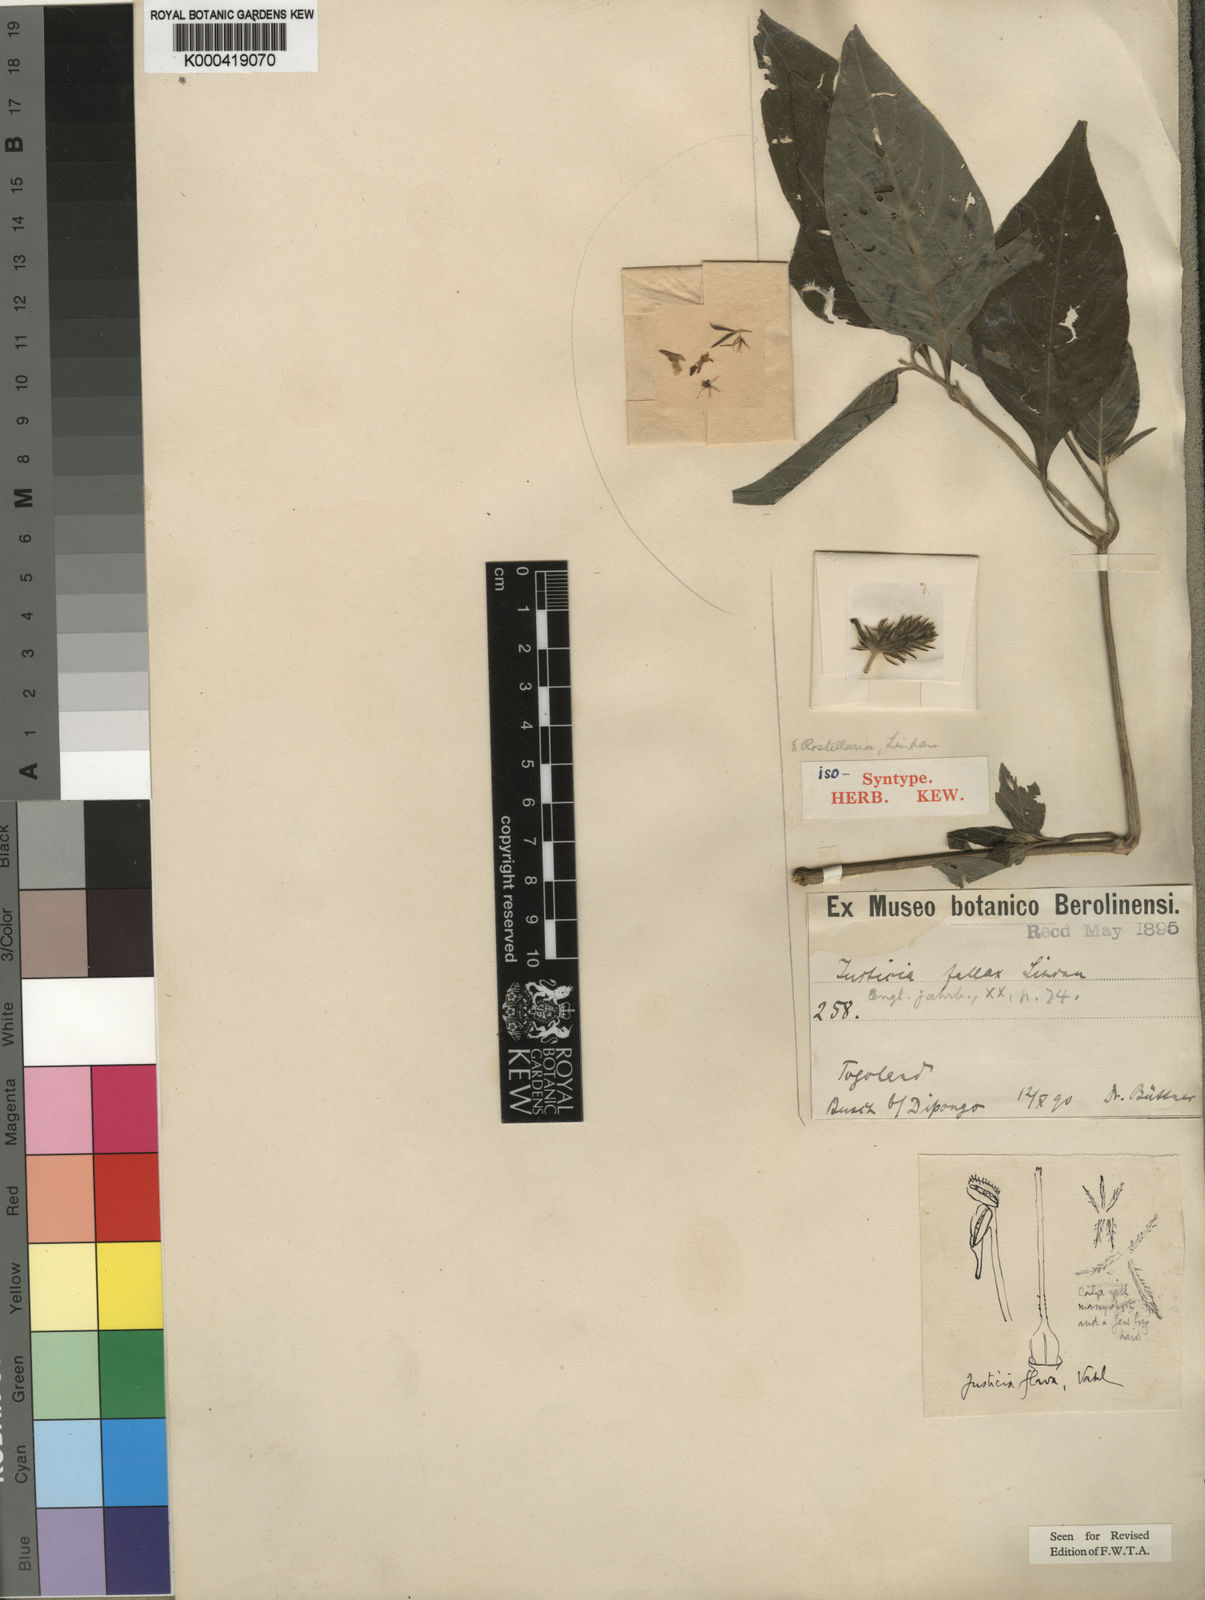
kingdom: Plantae
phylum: Tracheophyta
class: Magnoliopsida
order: Lamiales
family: Acanthaceae
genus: Justicia
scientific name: Justicia flava
